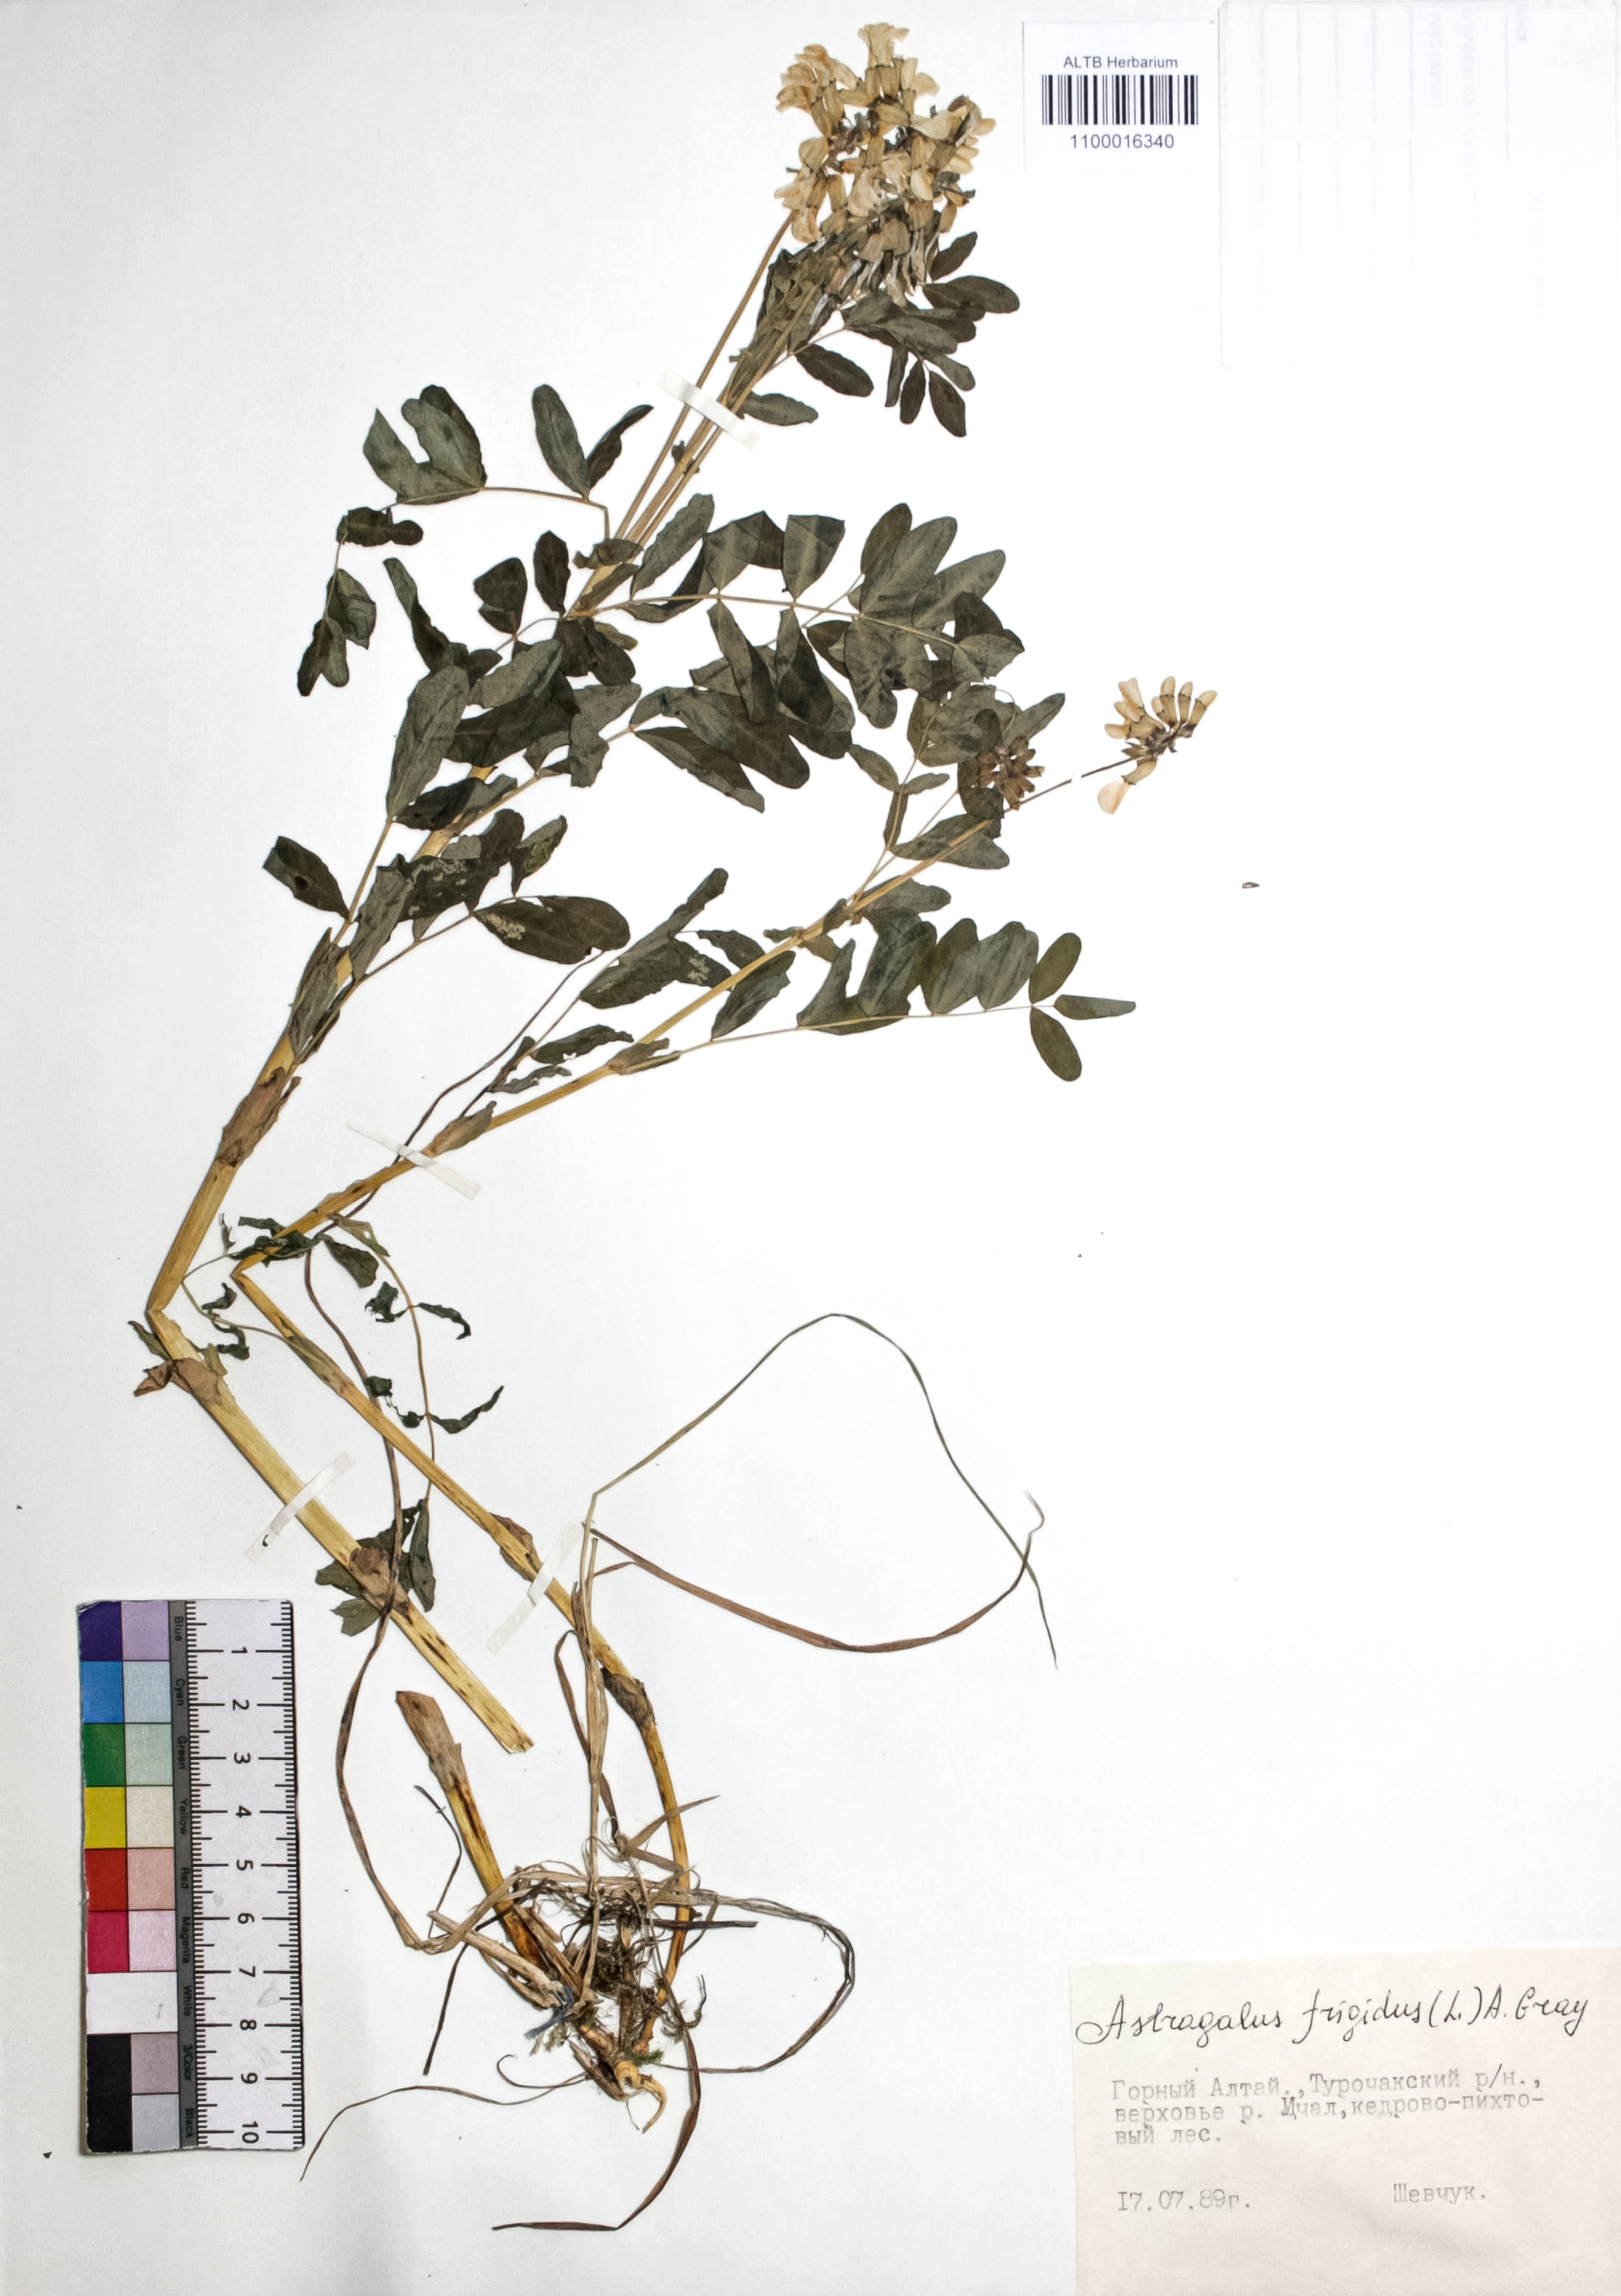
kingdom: Plantae
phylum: Tracheophyta
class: Magnoliopsida
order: Fabales
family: Fabaceae
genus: Astragalus
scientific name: Astragalus frigidus
